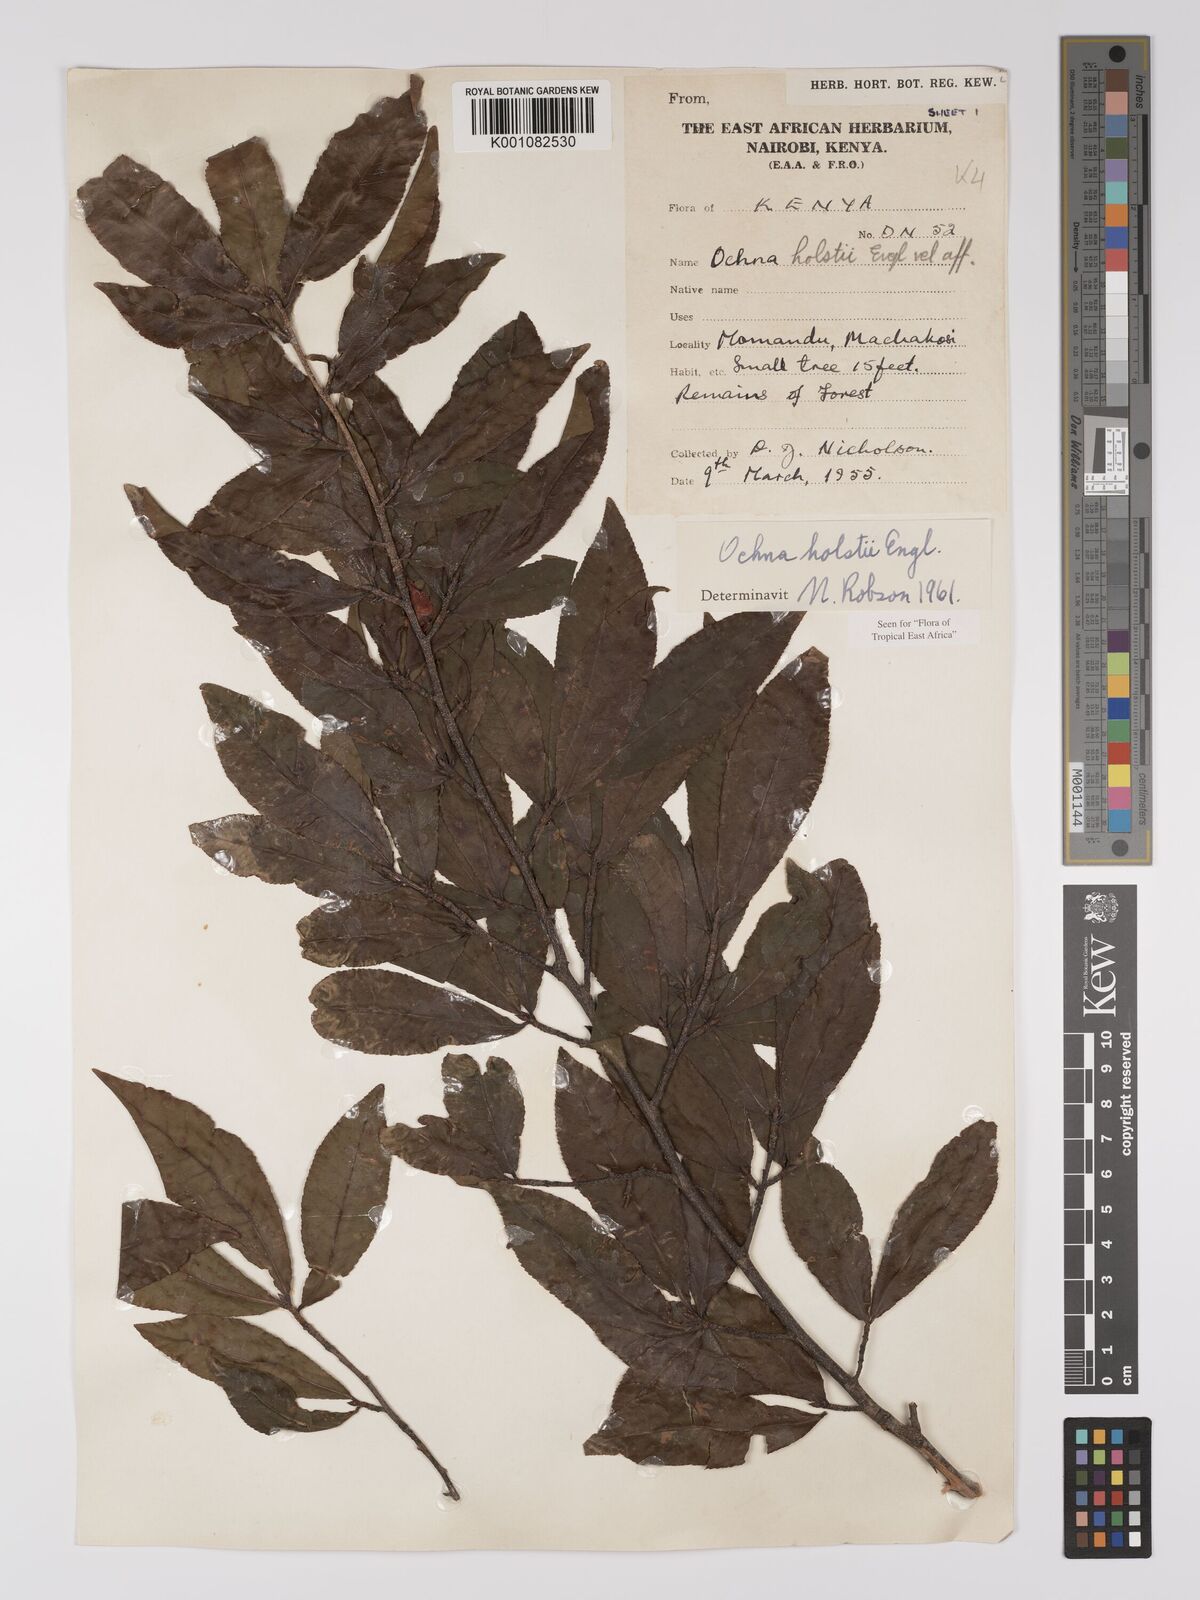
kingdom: Plantae
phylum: Tracheophyta
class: Magnoliopsida
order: Malpighiales
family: Ochnaceae
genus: Ochna
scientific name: Ochna holstii
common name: Red ironwood
